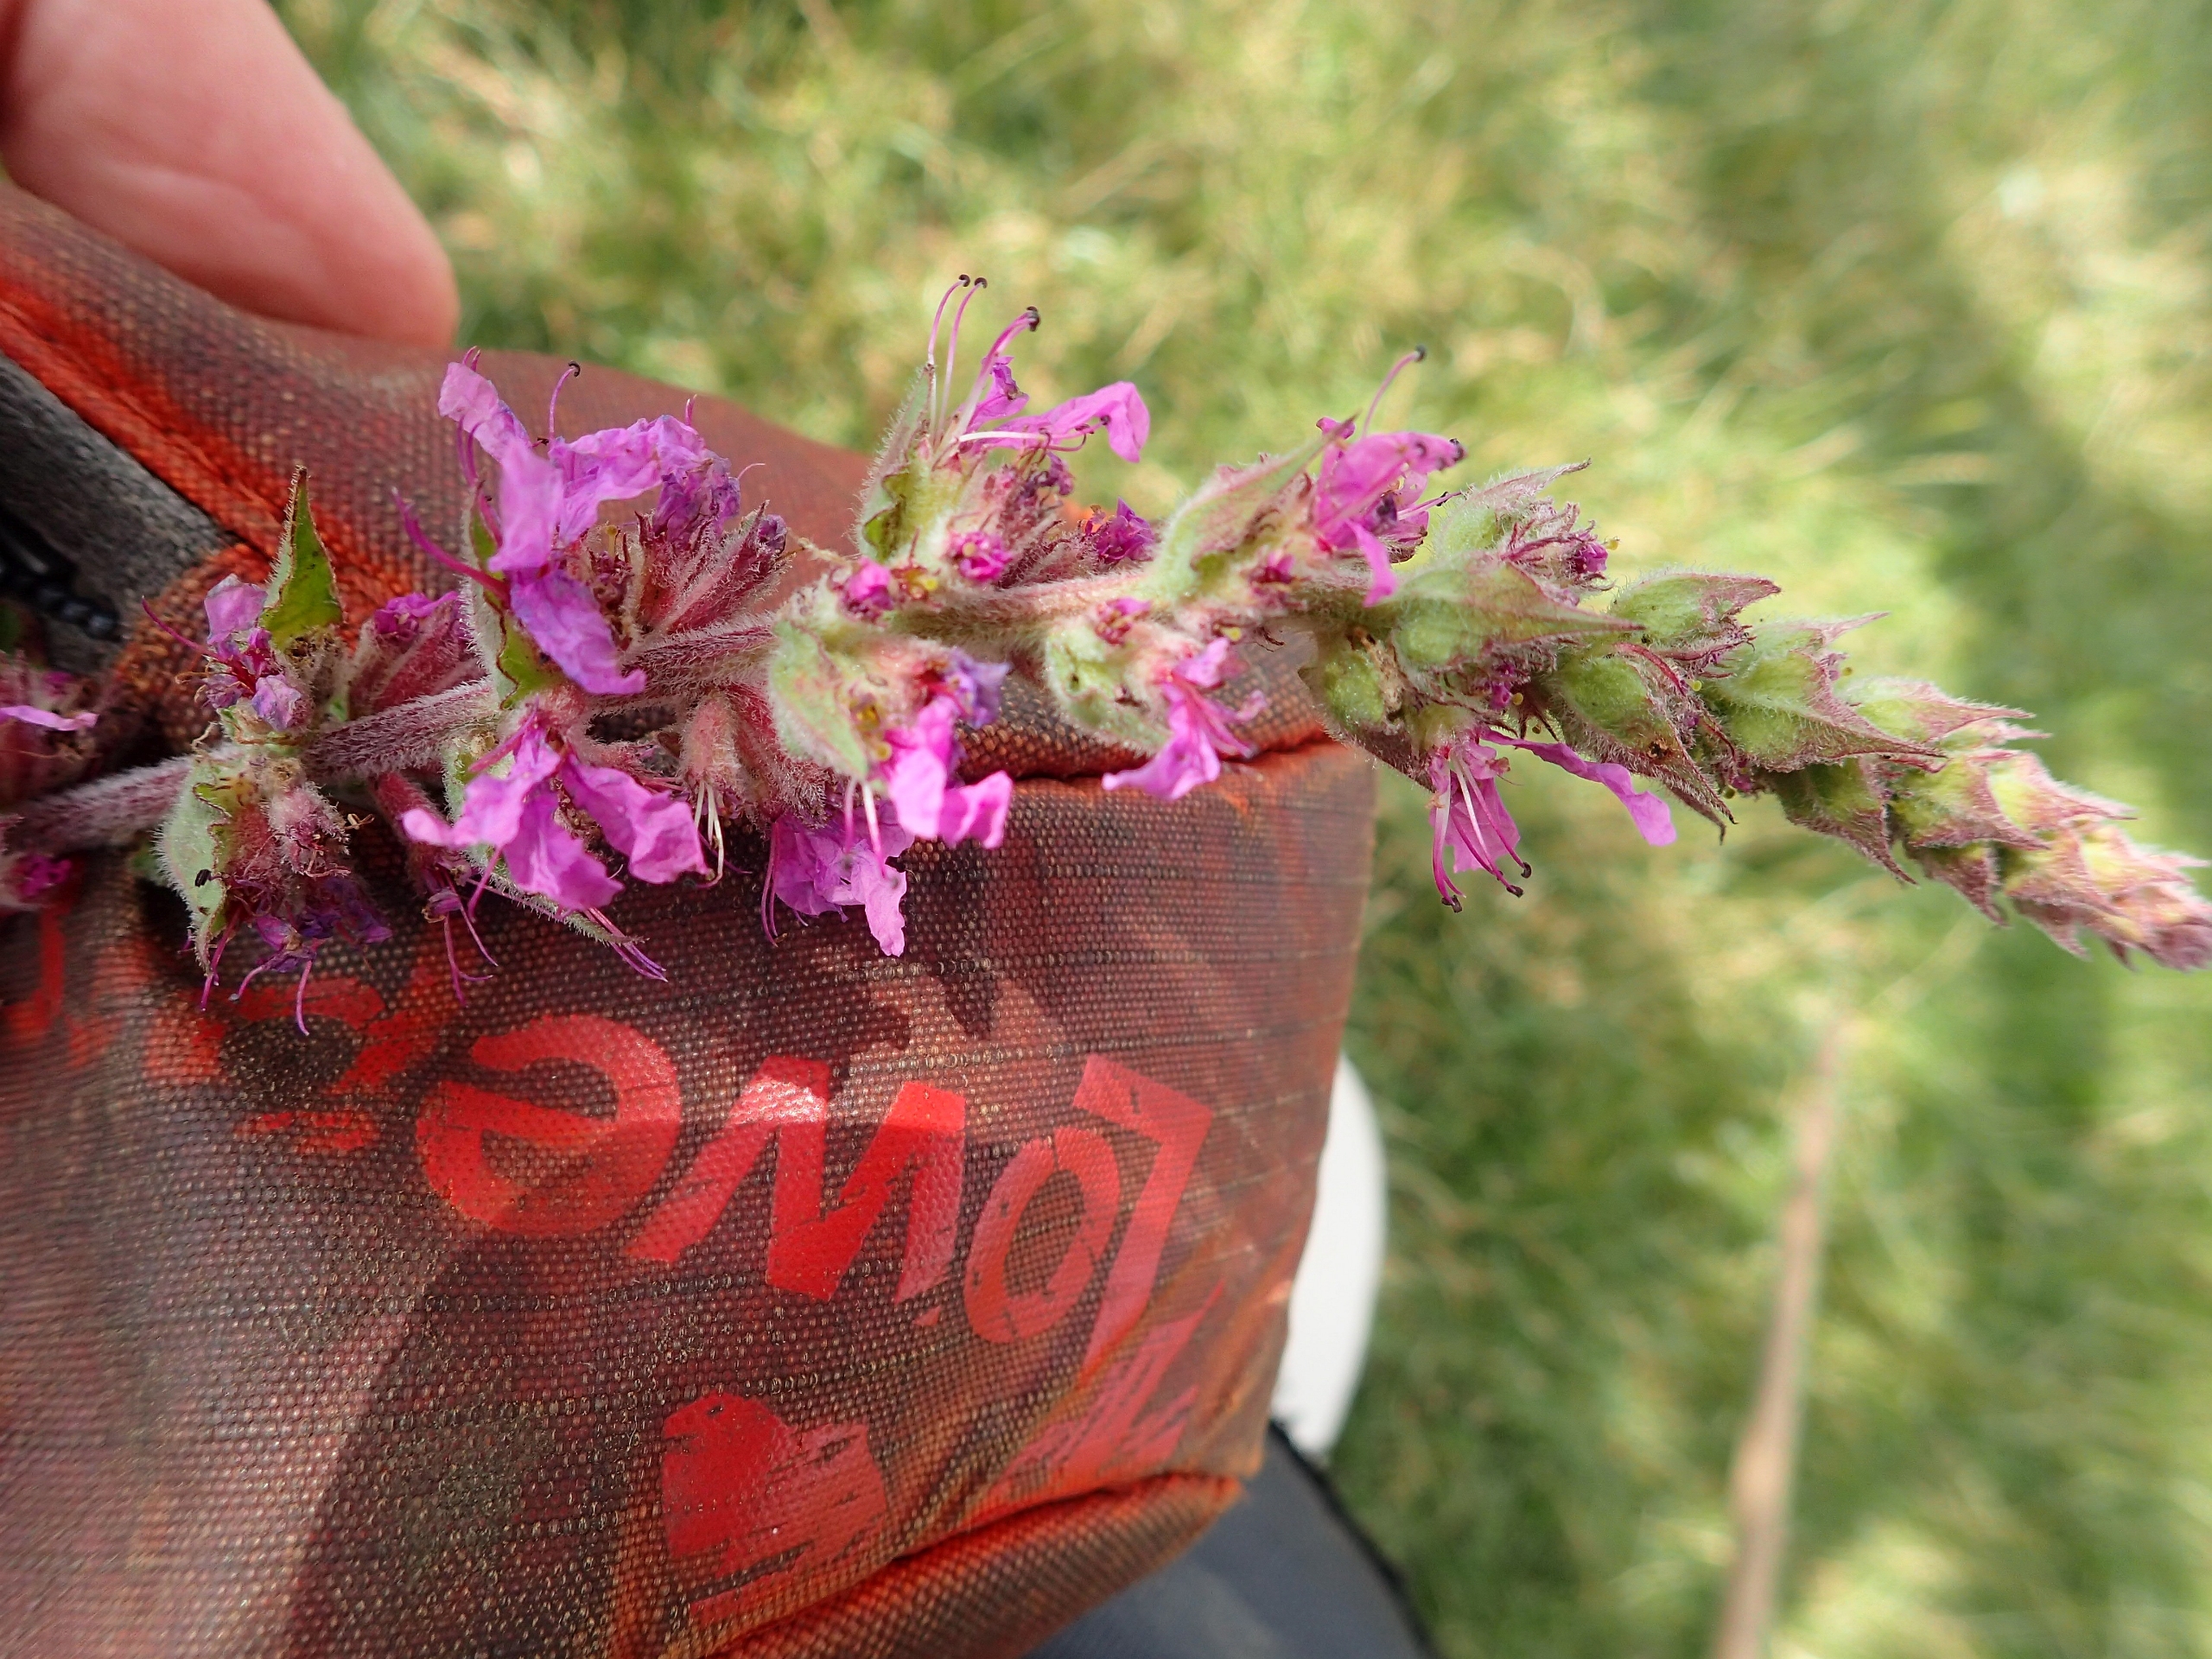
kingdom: Plantae
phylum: Tracheophyta
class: Magnoliopsida
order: Myrtales
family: Lythraceae
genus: Lythrum
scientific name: Lythrum salicaria
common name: Kattehale
